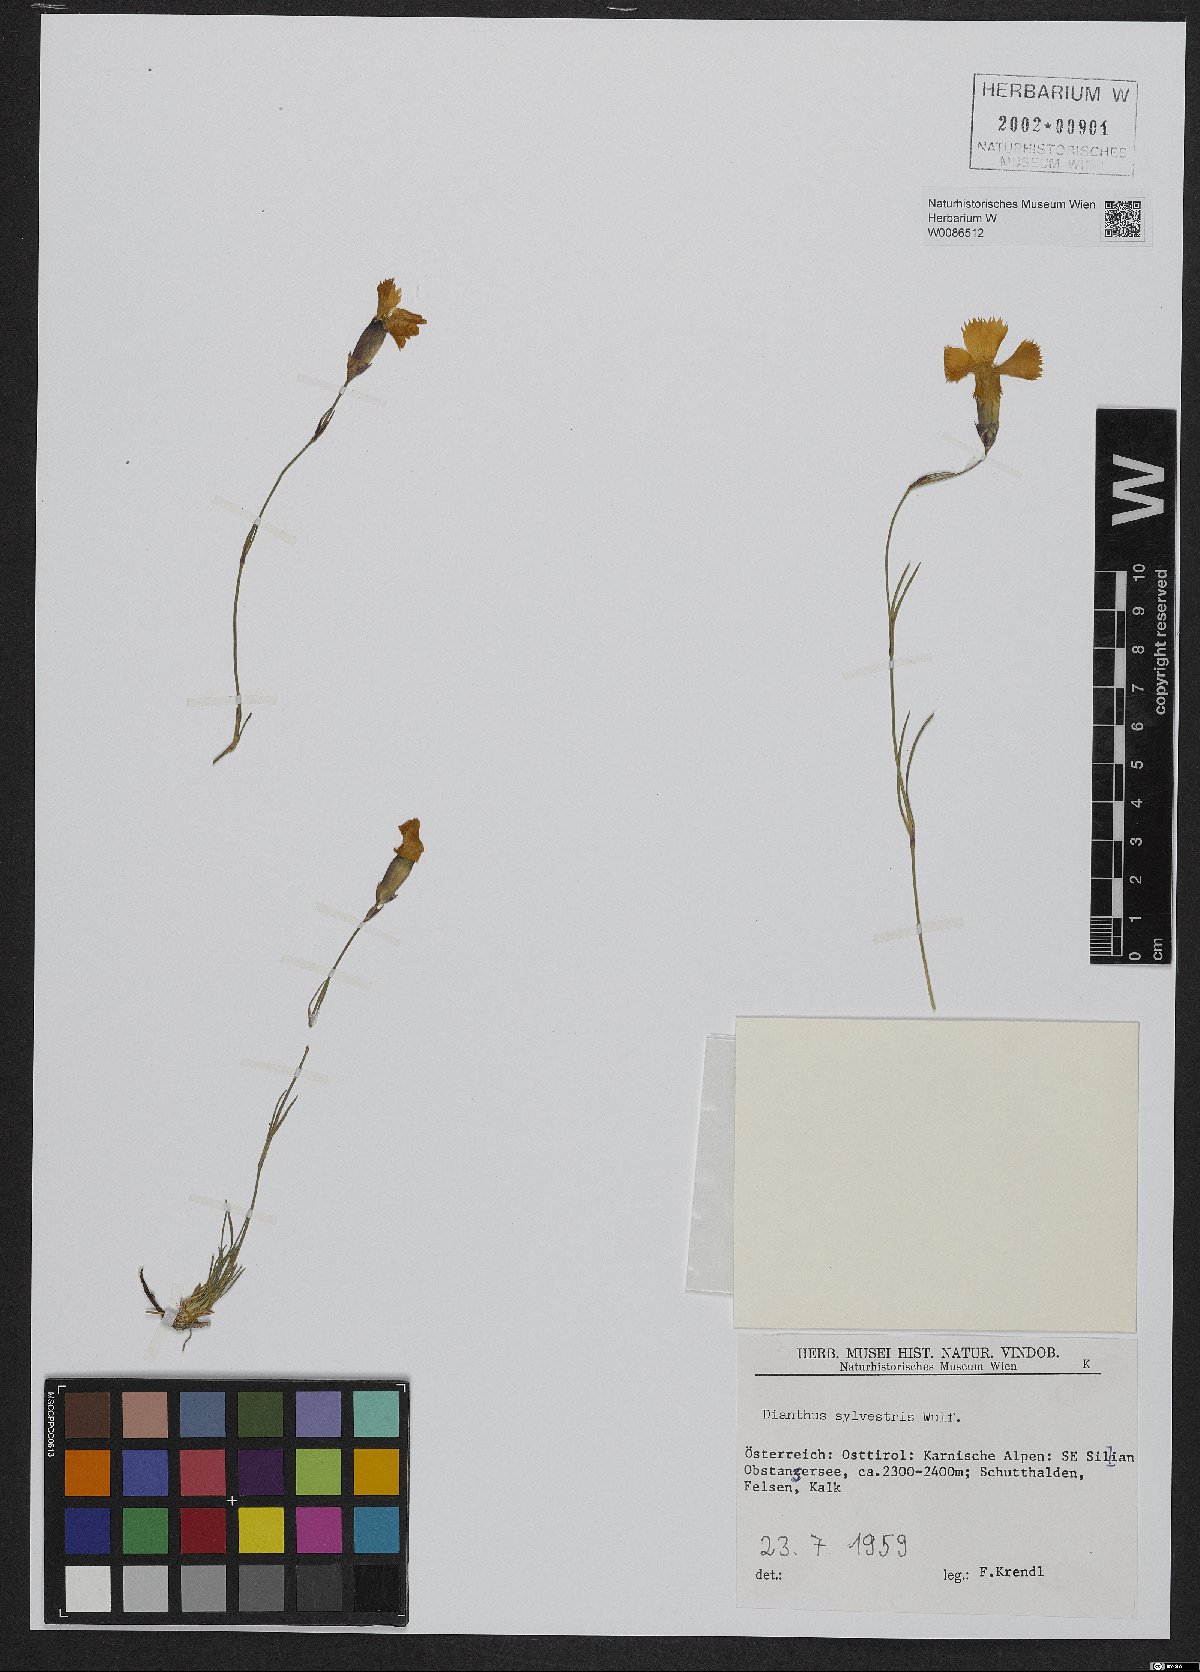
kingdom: Plantae
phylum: Tracheophyta
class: Magnoliopsida
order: Caryophyllales
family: Caryophyllaceae
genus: Dianthus
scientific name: Dianthus sylvestris
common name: Wood pink
